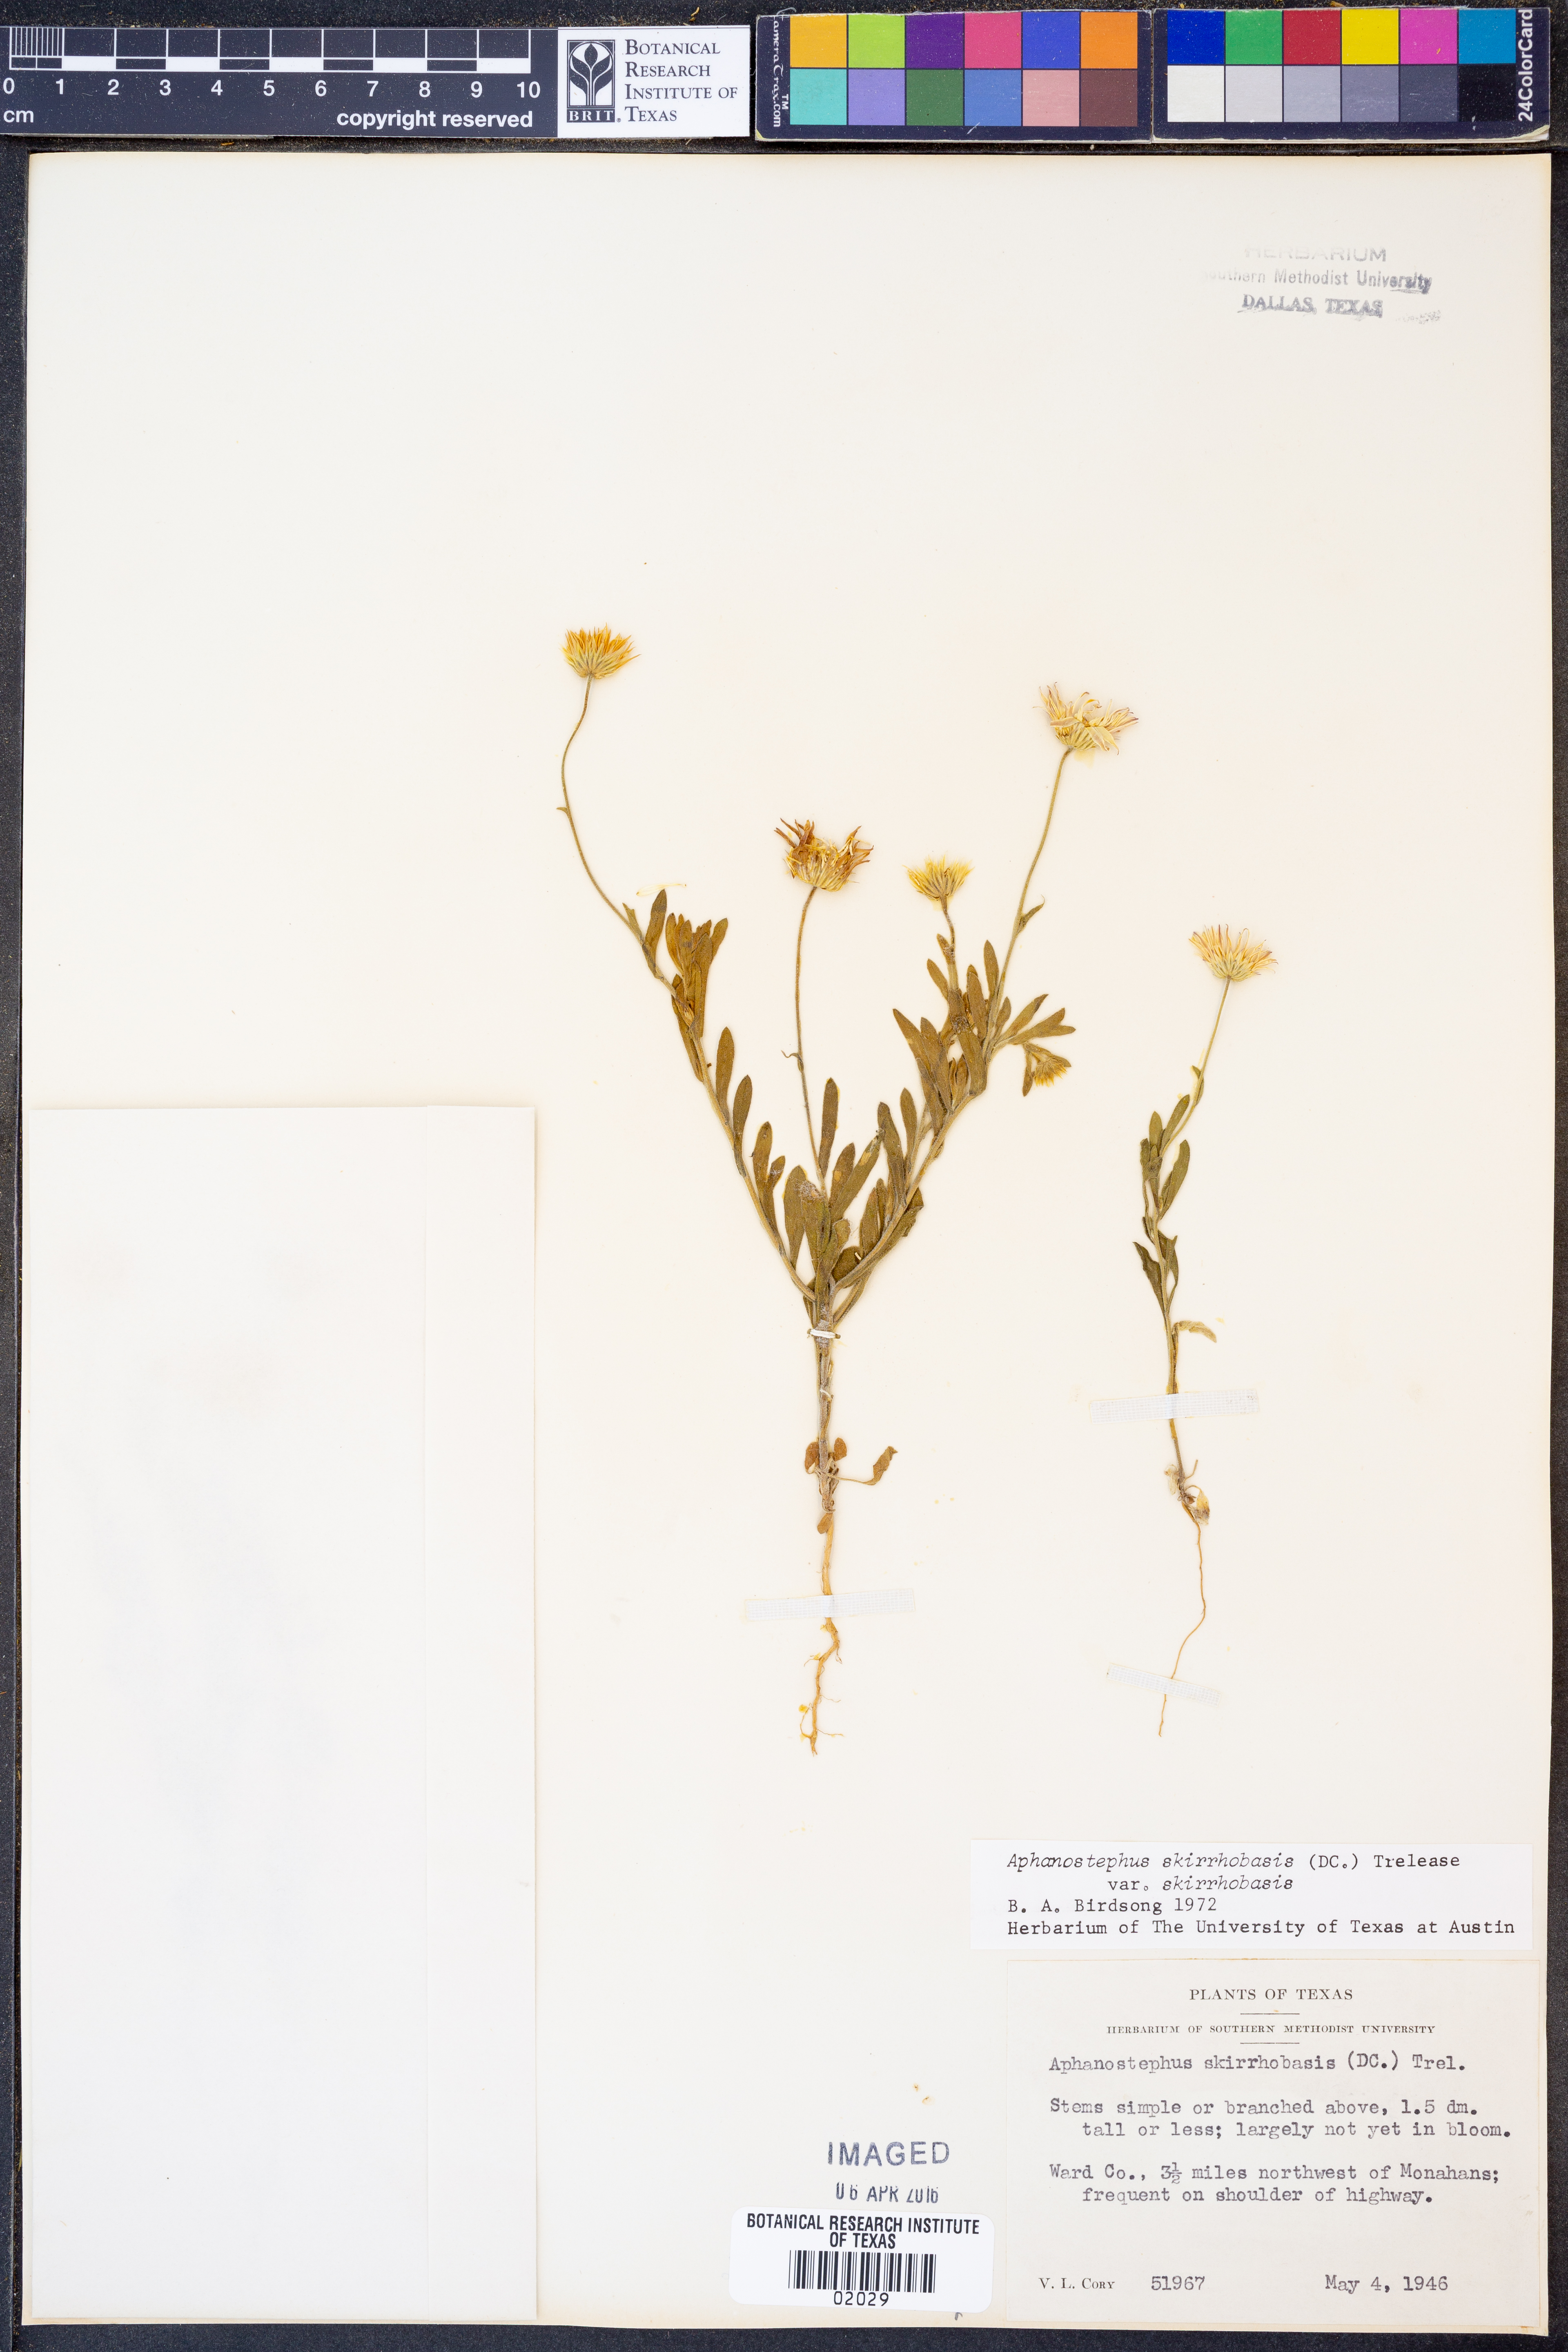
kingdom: Plantae
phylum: Tracheophyta
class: Magnoliopsida
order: Asterales
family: Asteraceae
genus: Aphanostephus
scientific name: Aphanostephus skirrhobasis
